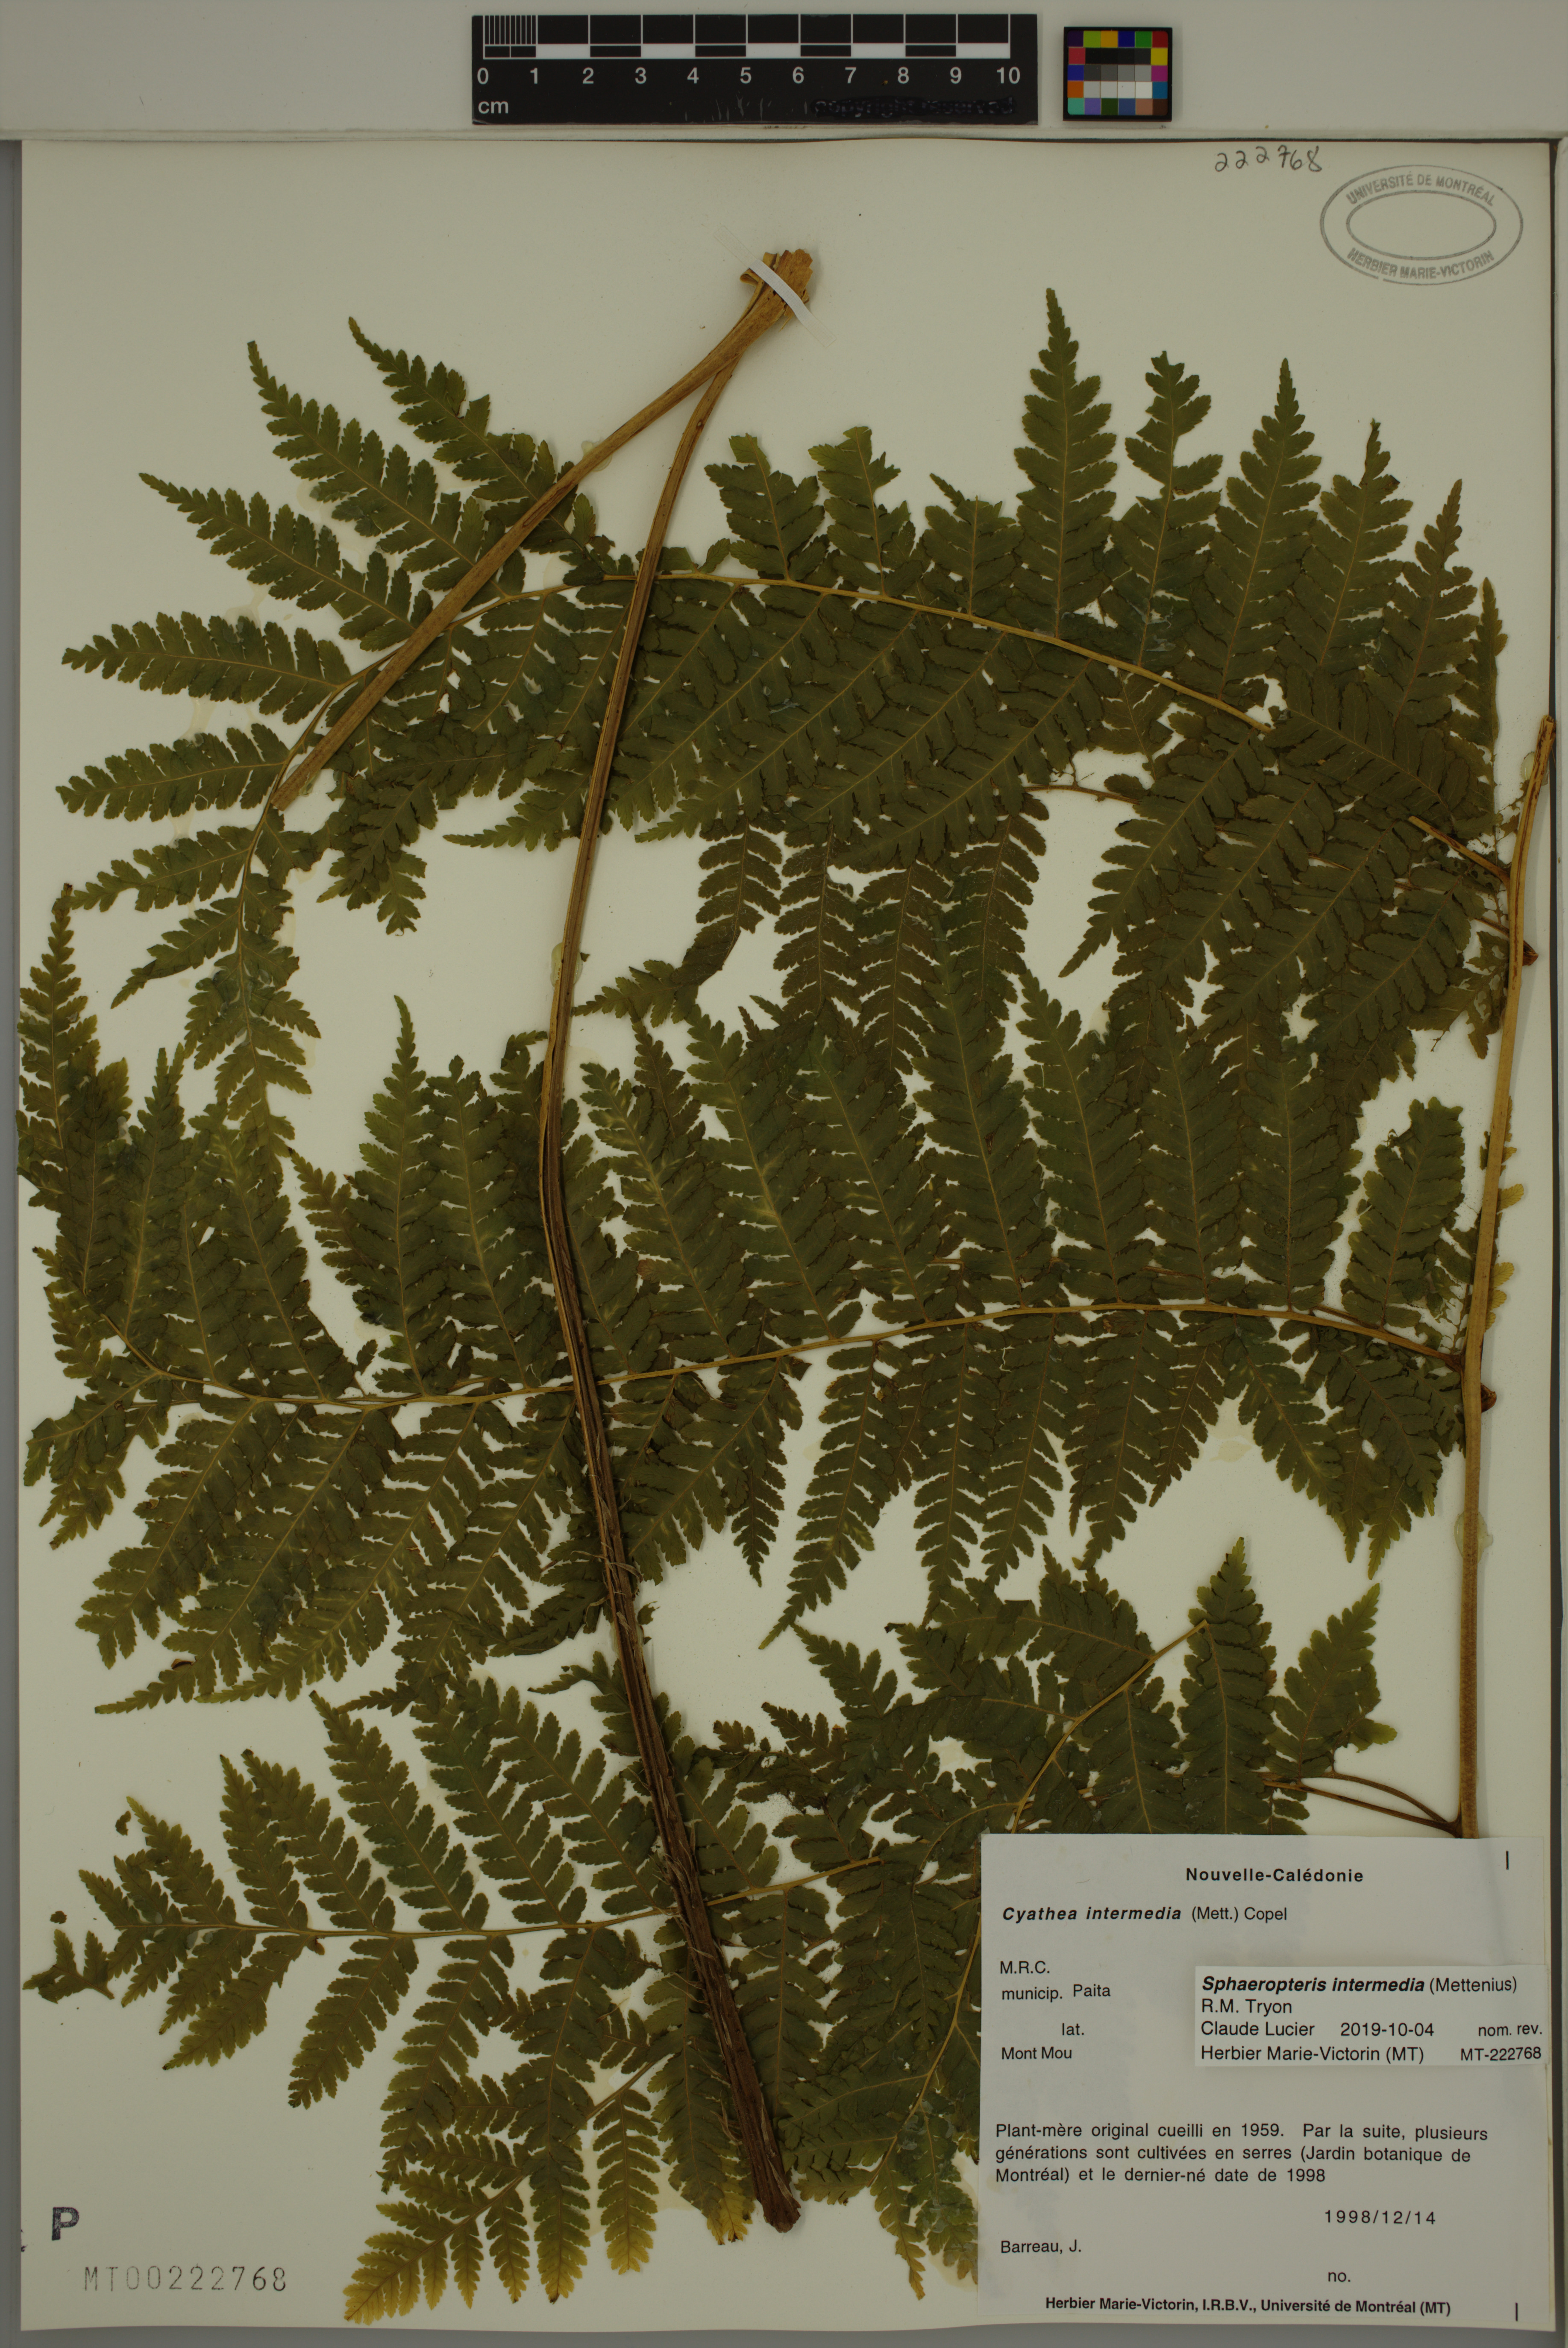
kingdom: Plantae
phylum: Tracheophyta
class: Polypodiopsida
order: Cyatheales
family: Cyatheaceae
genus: Sphaeropteris
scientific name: Sphaeropteris intermedia
